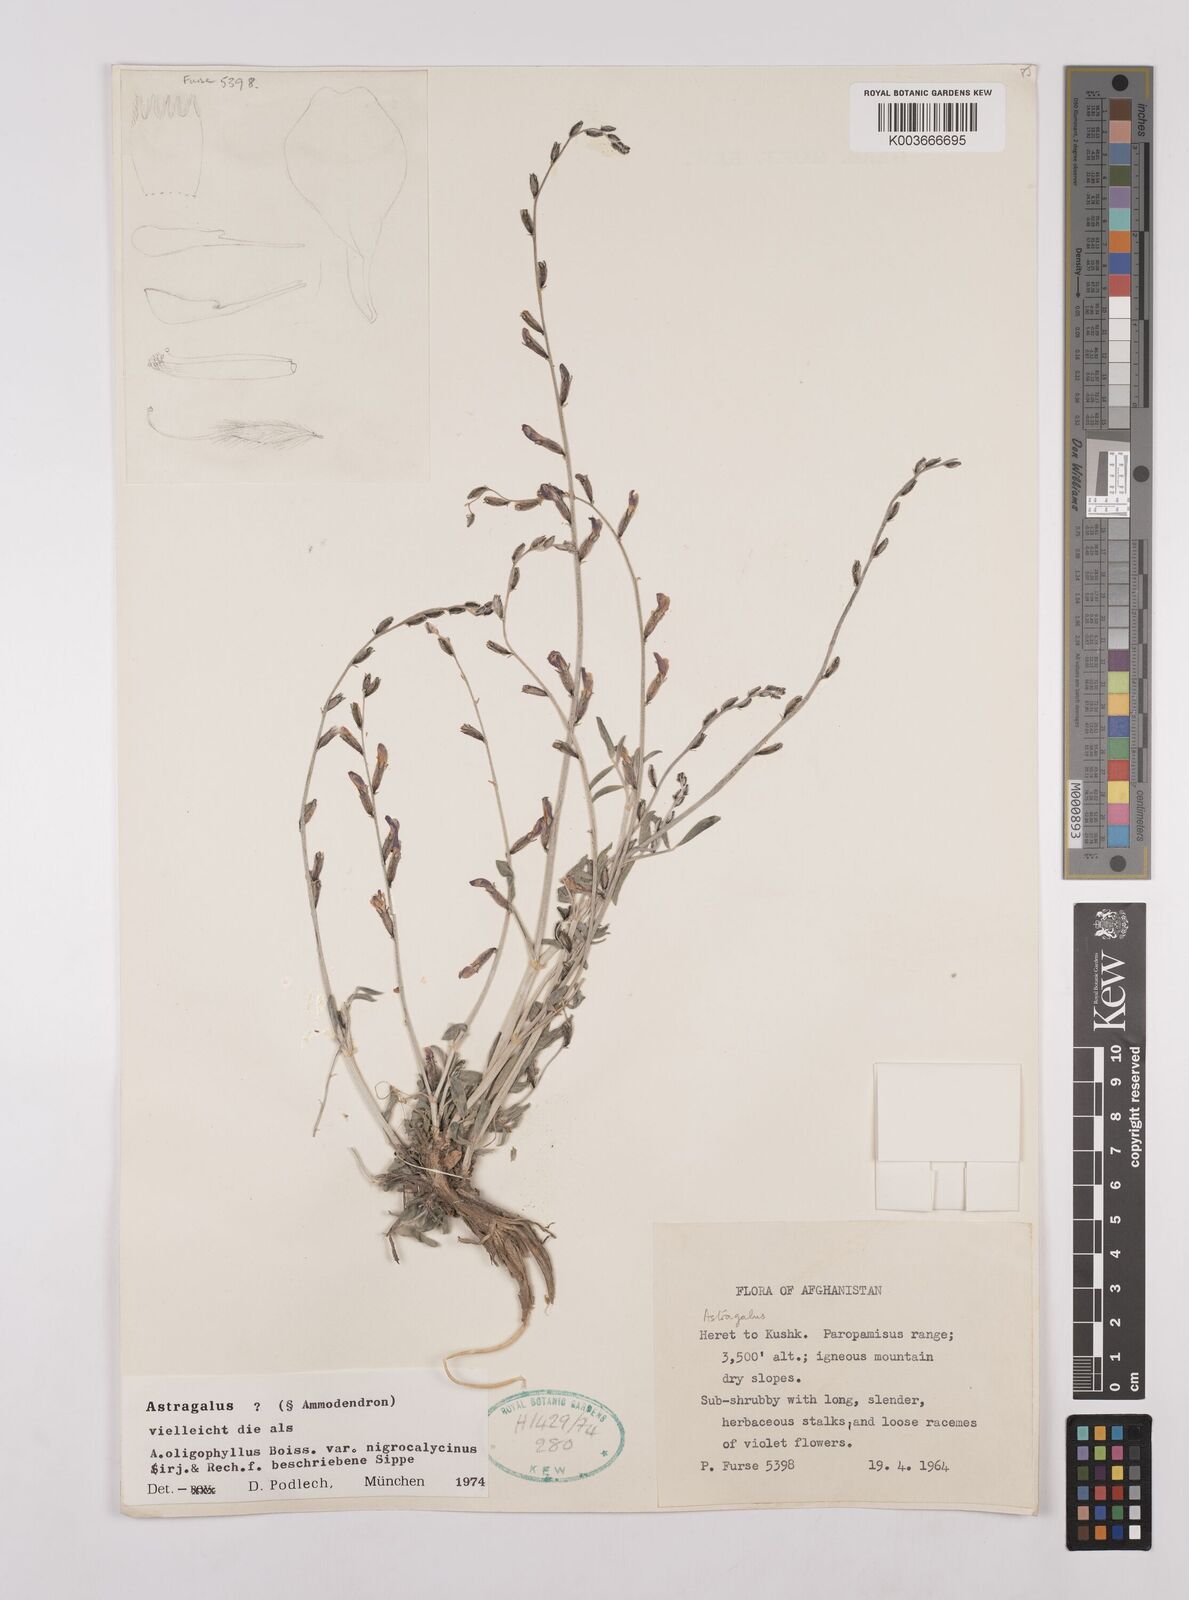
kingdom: Plantae
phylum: Tracheophyta
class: Magnoliopsida
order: Fabales
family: Fabaceae
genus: Astragalus
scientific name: Astragalus
